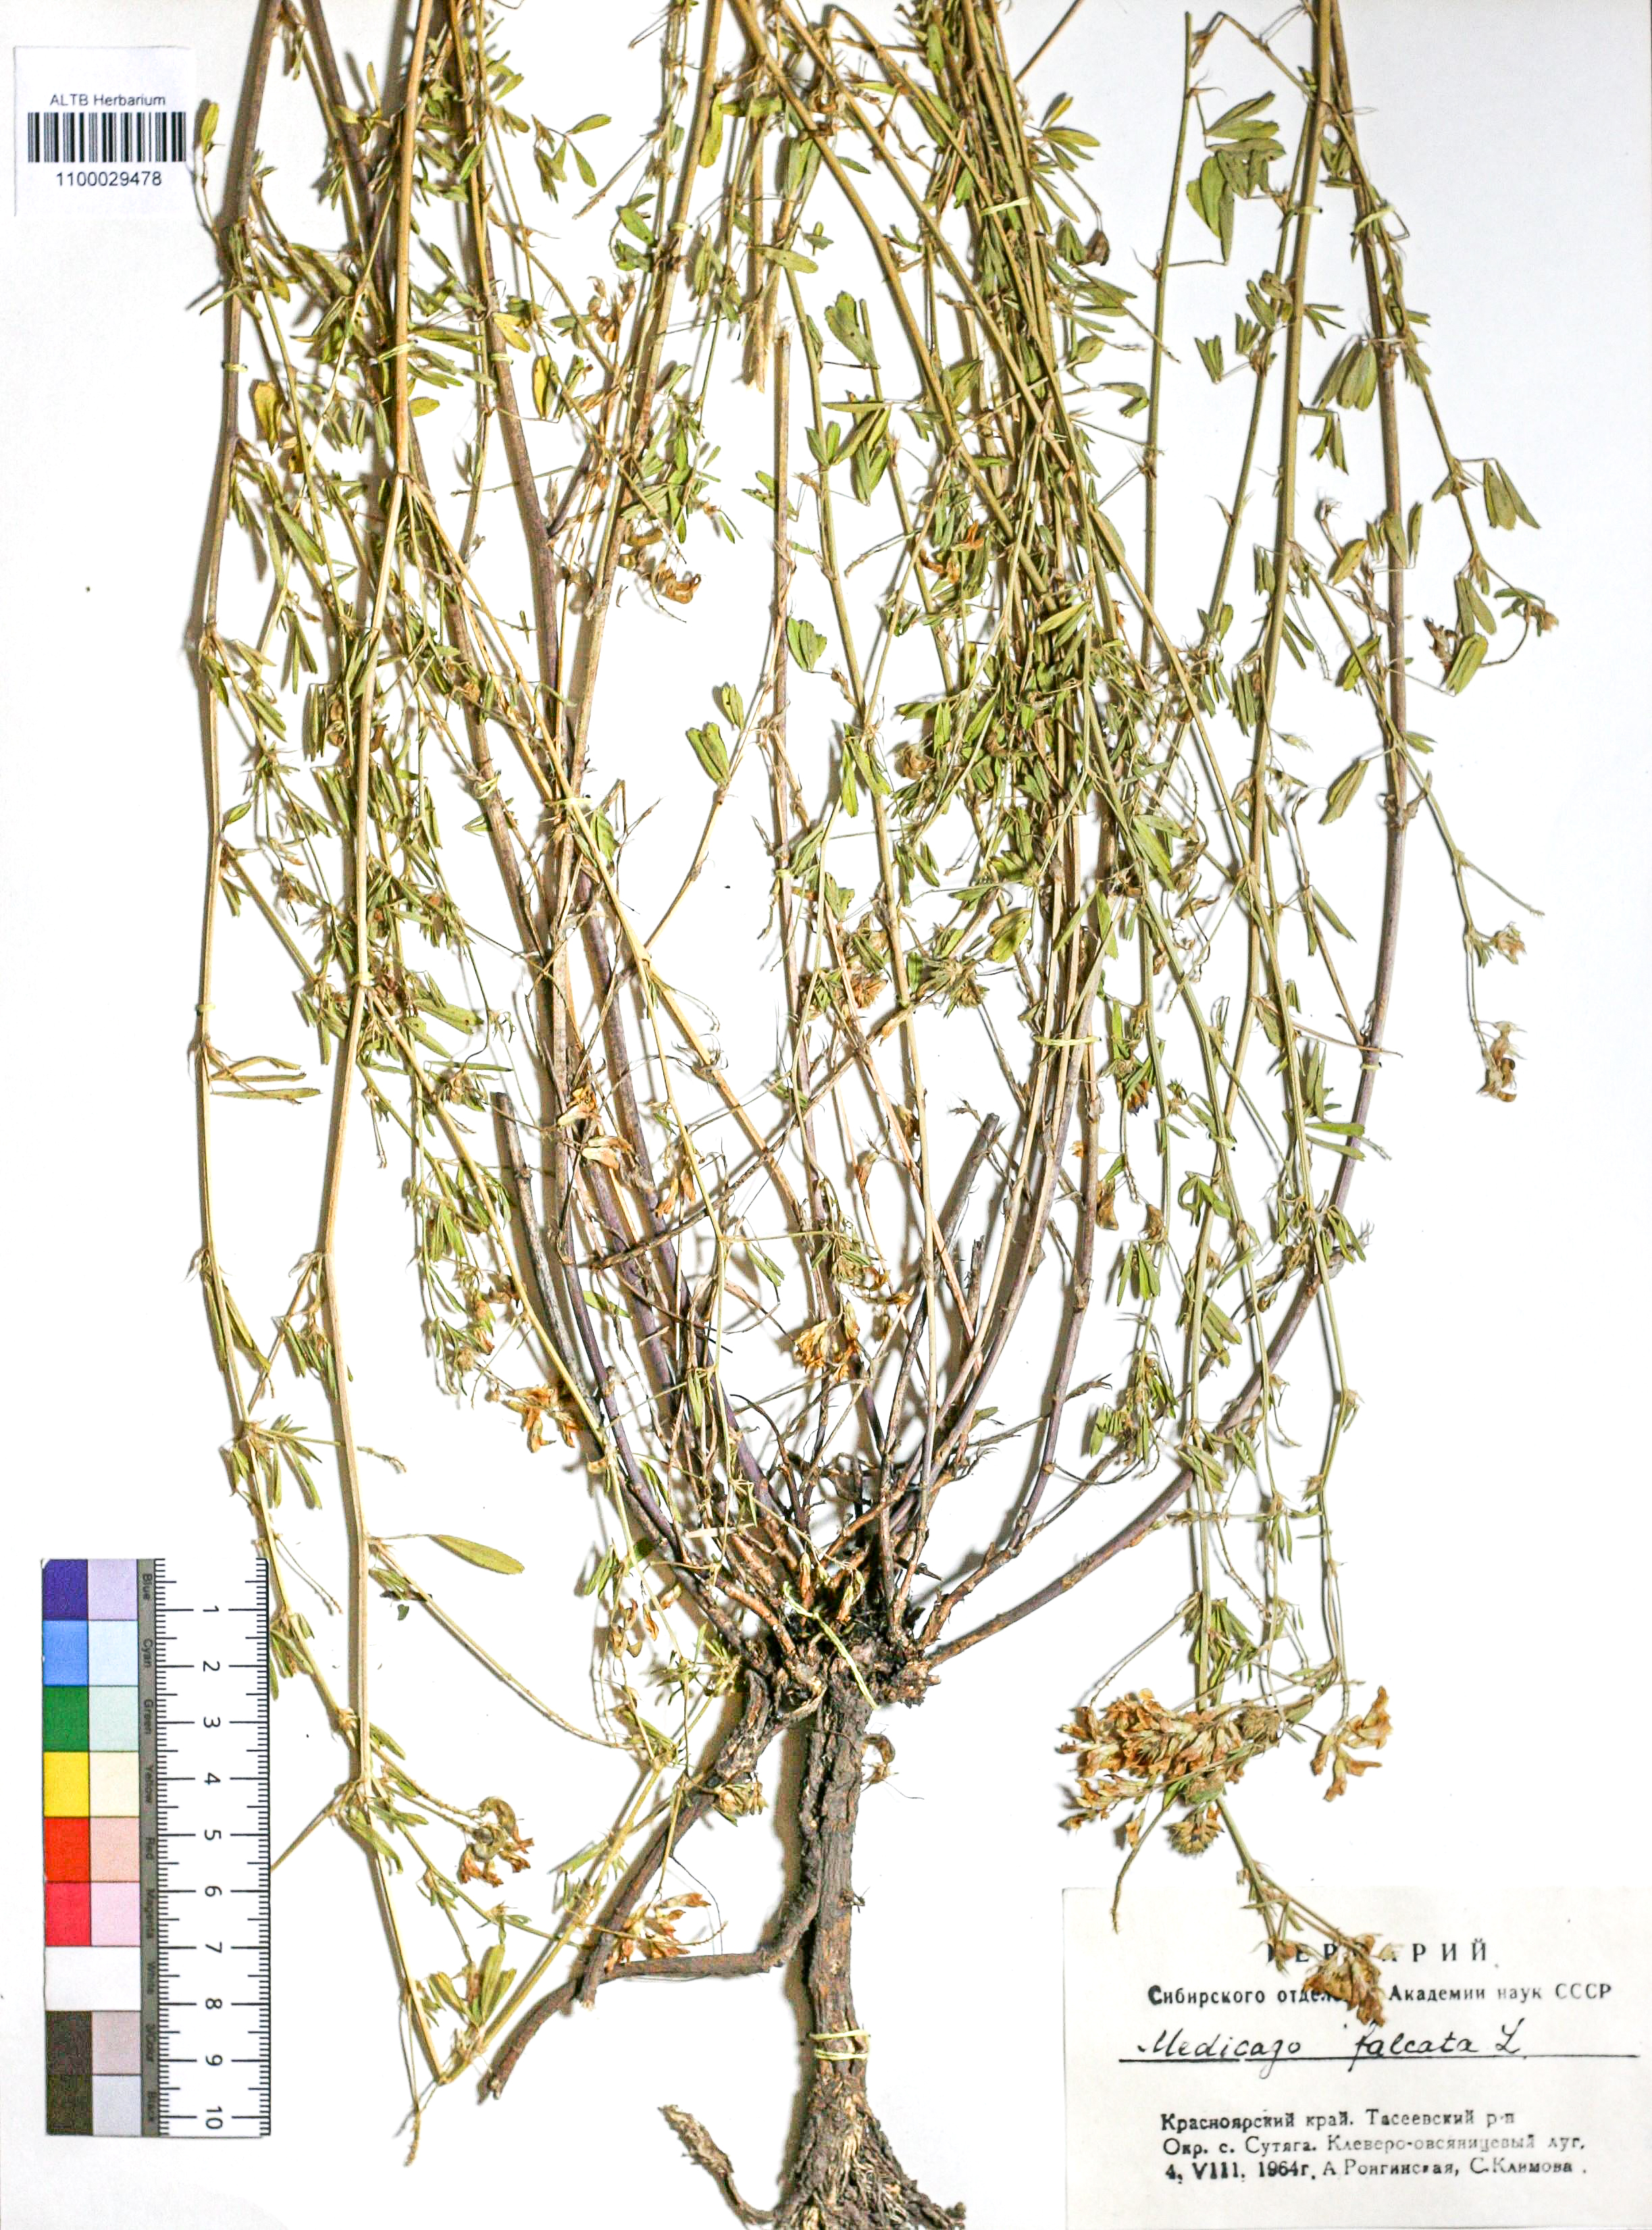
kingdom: Plantae
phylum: Tracheophyta
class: Magnoliopsida
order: Fabales
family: Fabaceae
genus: Medicago
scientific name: Medicago falcata
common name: Sickle medick
